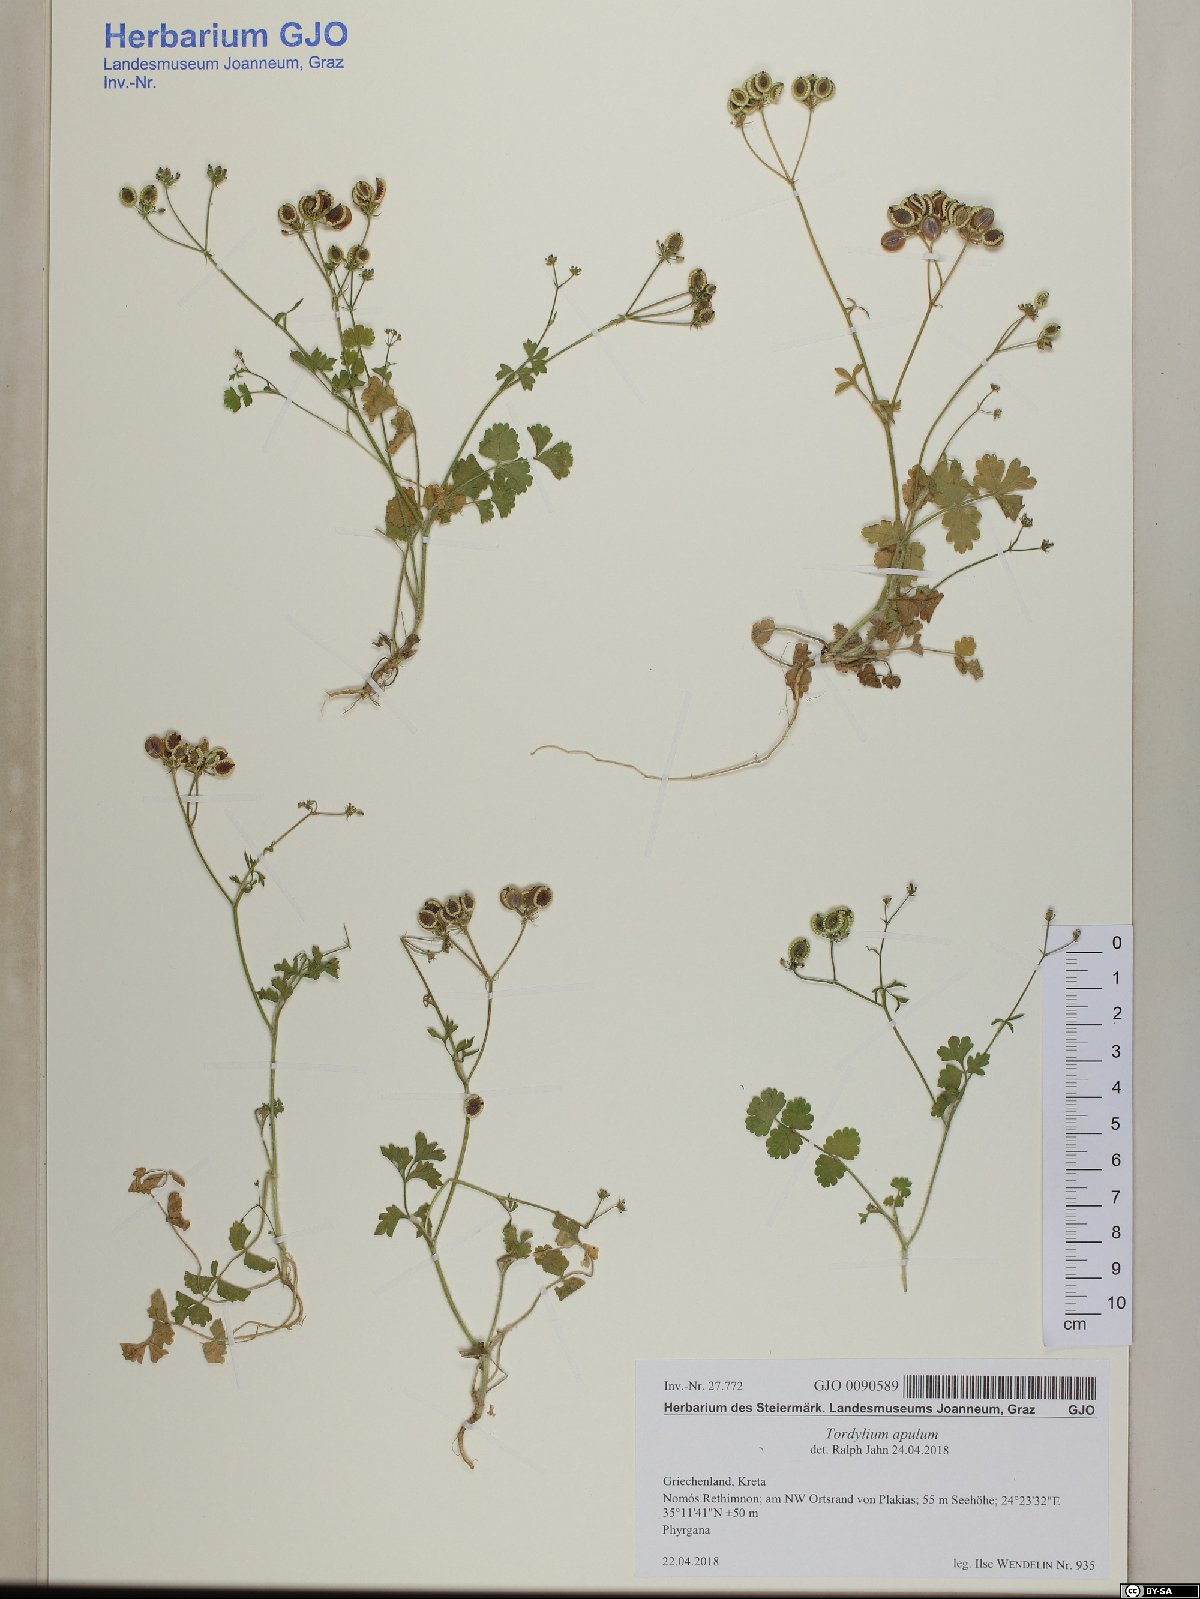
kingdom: Plantae
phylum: Tracheophyta
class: Magnoliopsida
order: Apiales
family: Apiaceae
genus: Tordylium
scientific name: Tordylium apulum
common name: Mediterranean hartwort
